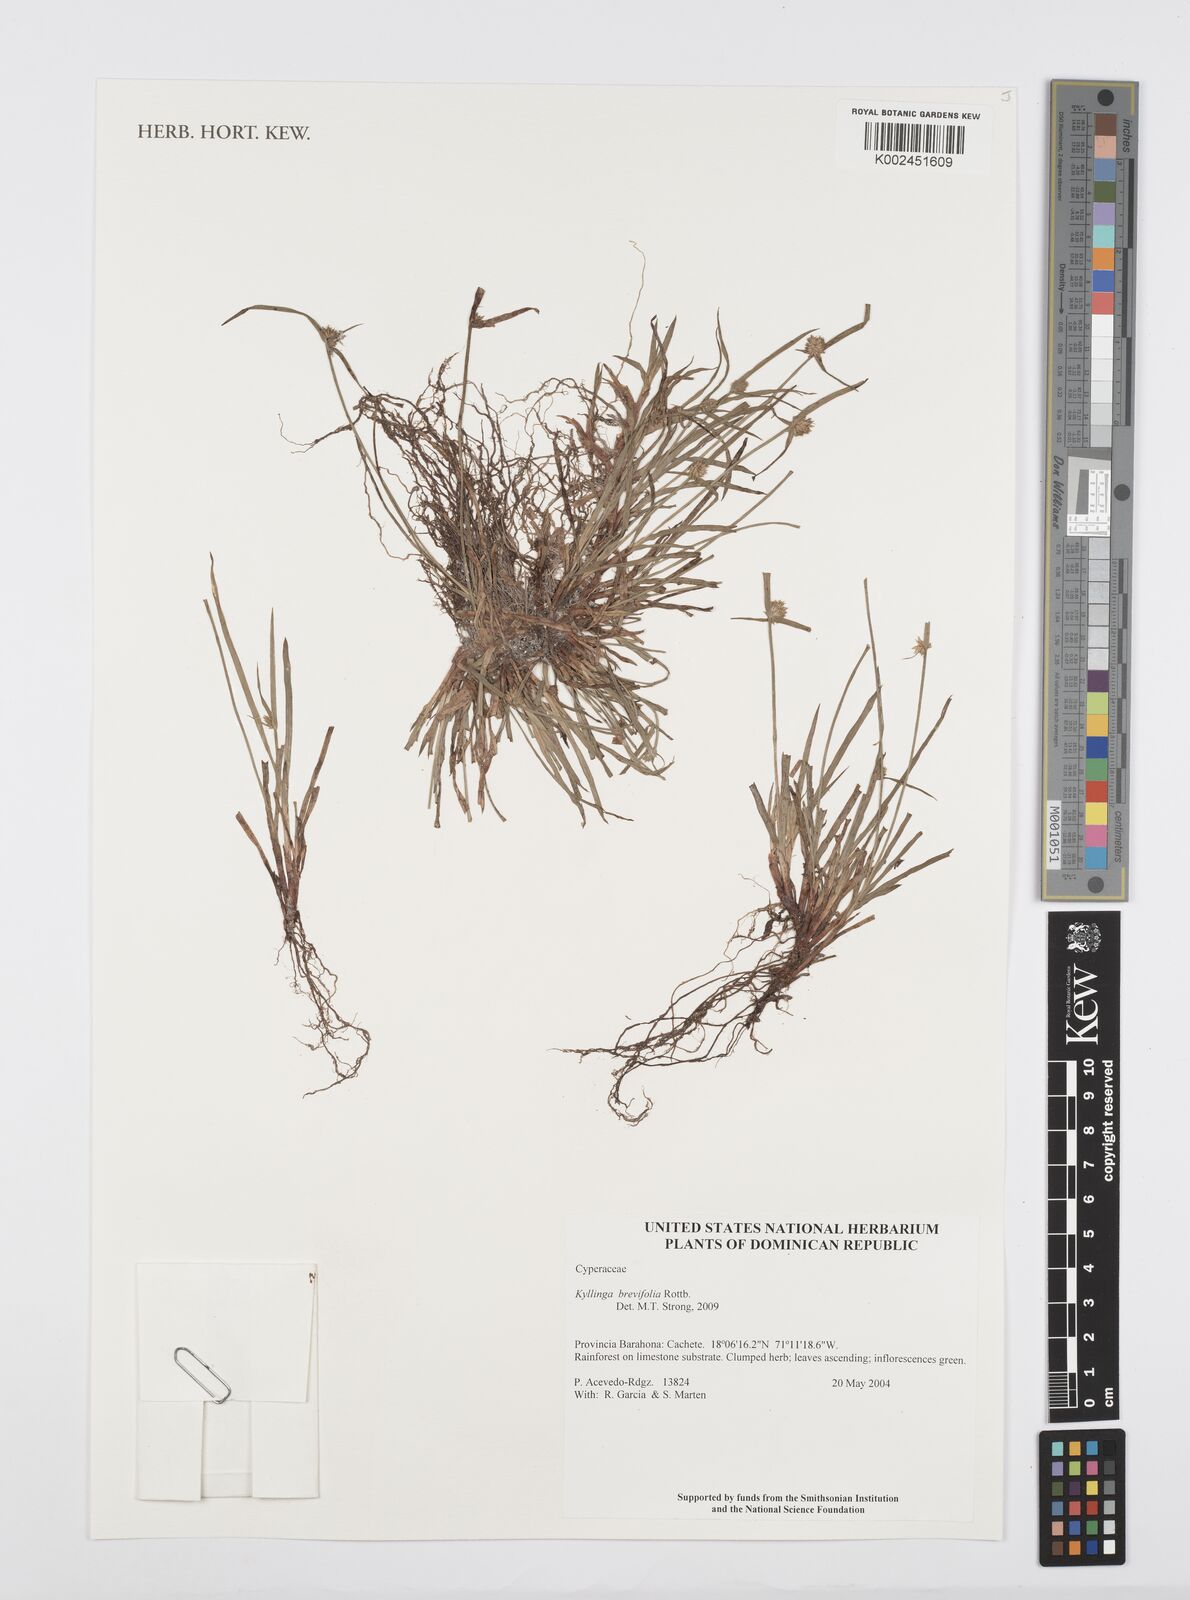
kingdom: Plantae
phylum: Tracheophyta
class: Liliopsida
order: Poales
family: Cyperaceae
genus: Cyperus
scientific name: Cyperus brevifolius
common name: Globe kyllinga
